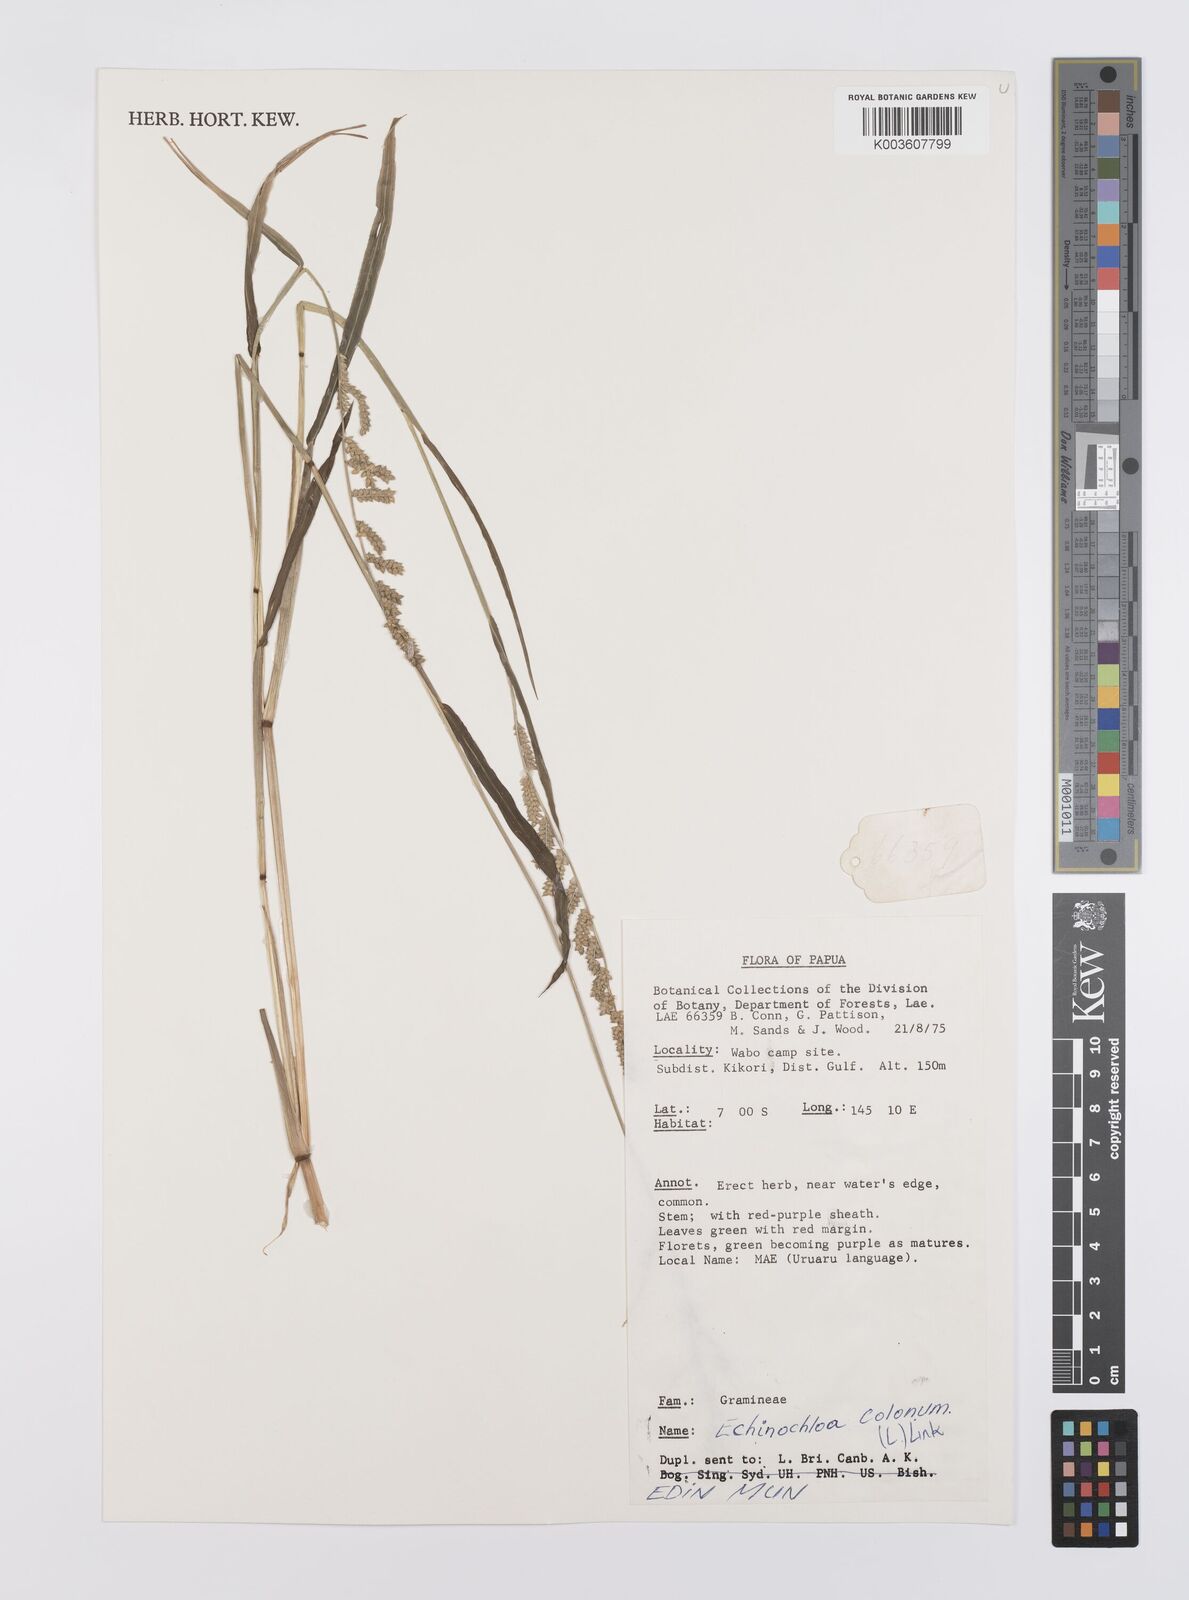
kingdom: Plantae
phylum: Tracheophyta
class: Liliopsida
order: Poales
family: Poaceae
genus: Echinochloa
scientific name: Echinochloa colonum
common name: Jungle rice
